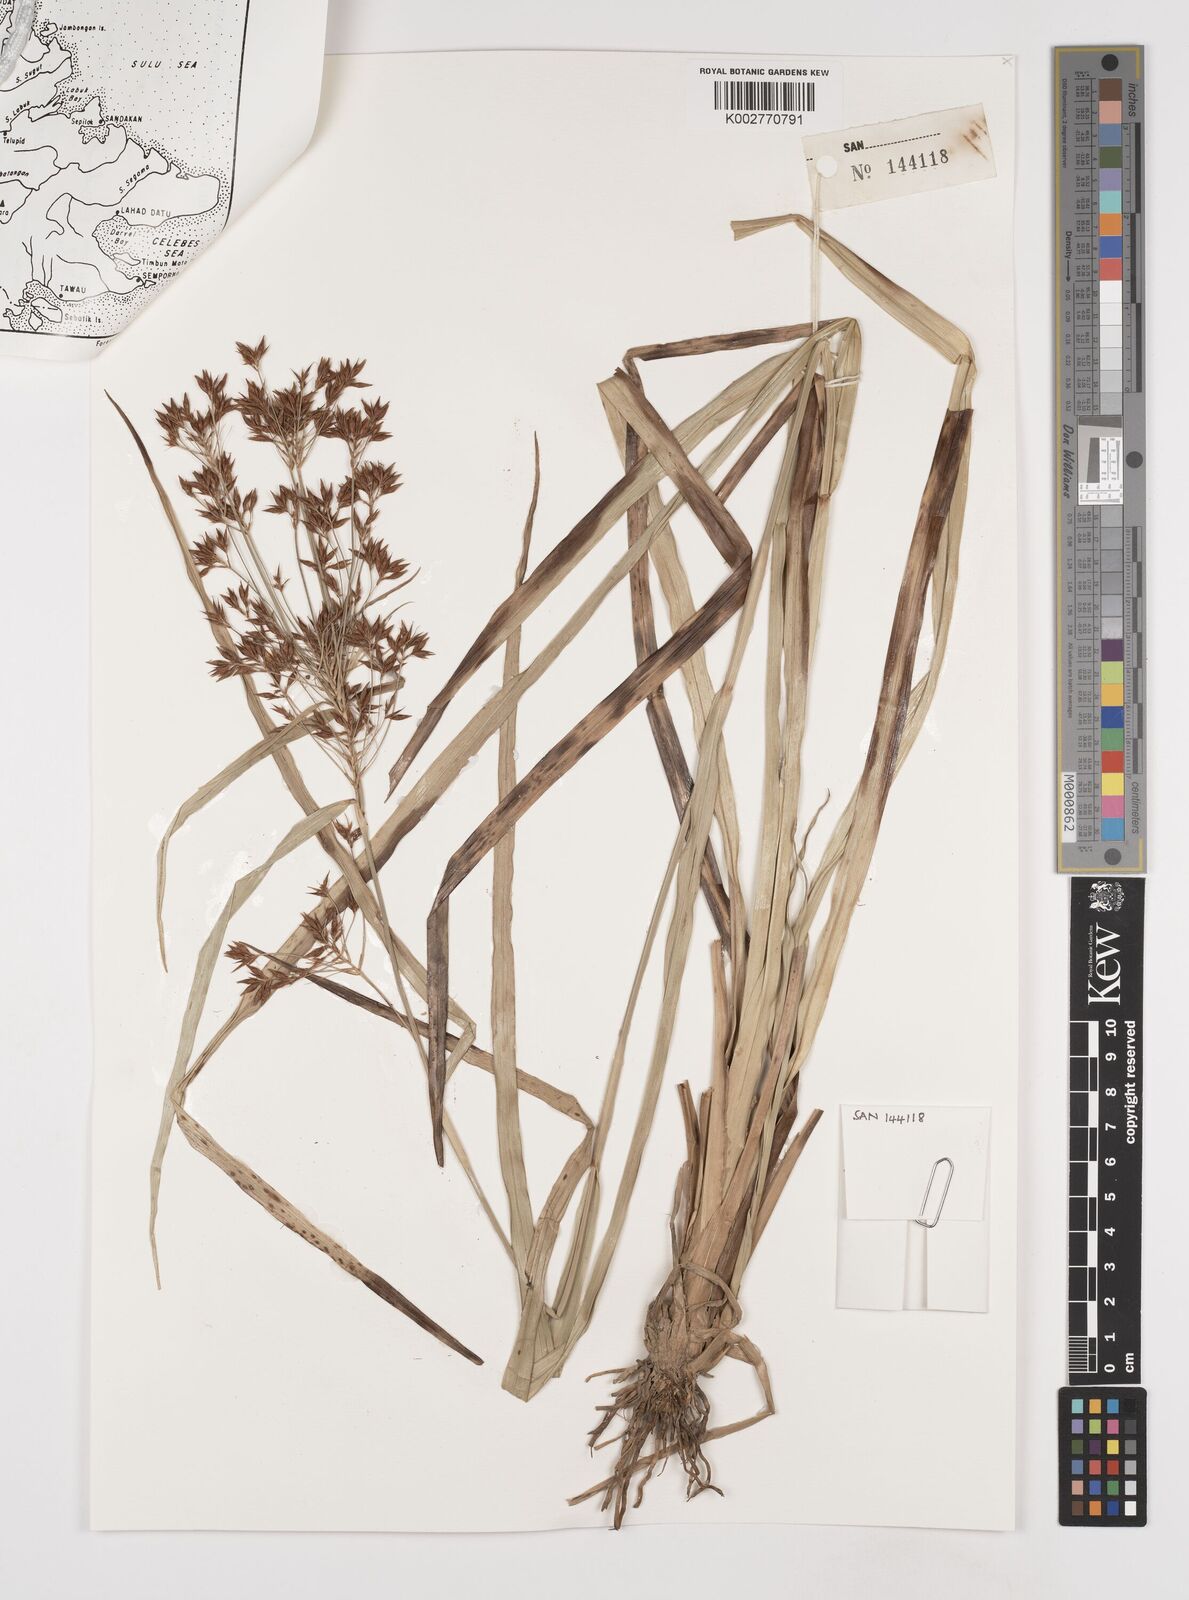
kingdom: Plantae
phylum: Tracheophyta
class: Liliopsida
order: Poales
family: Cyperaceae
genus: Rhynchospora
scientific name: Rhynchospora corymbosa
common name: Golden beak sedge
